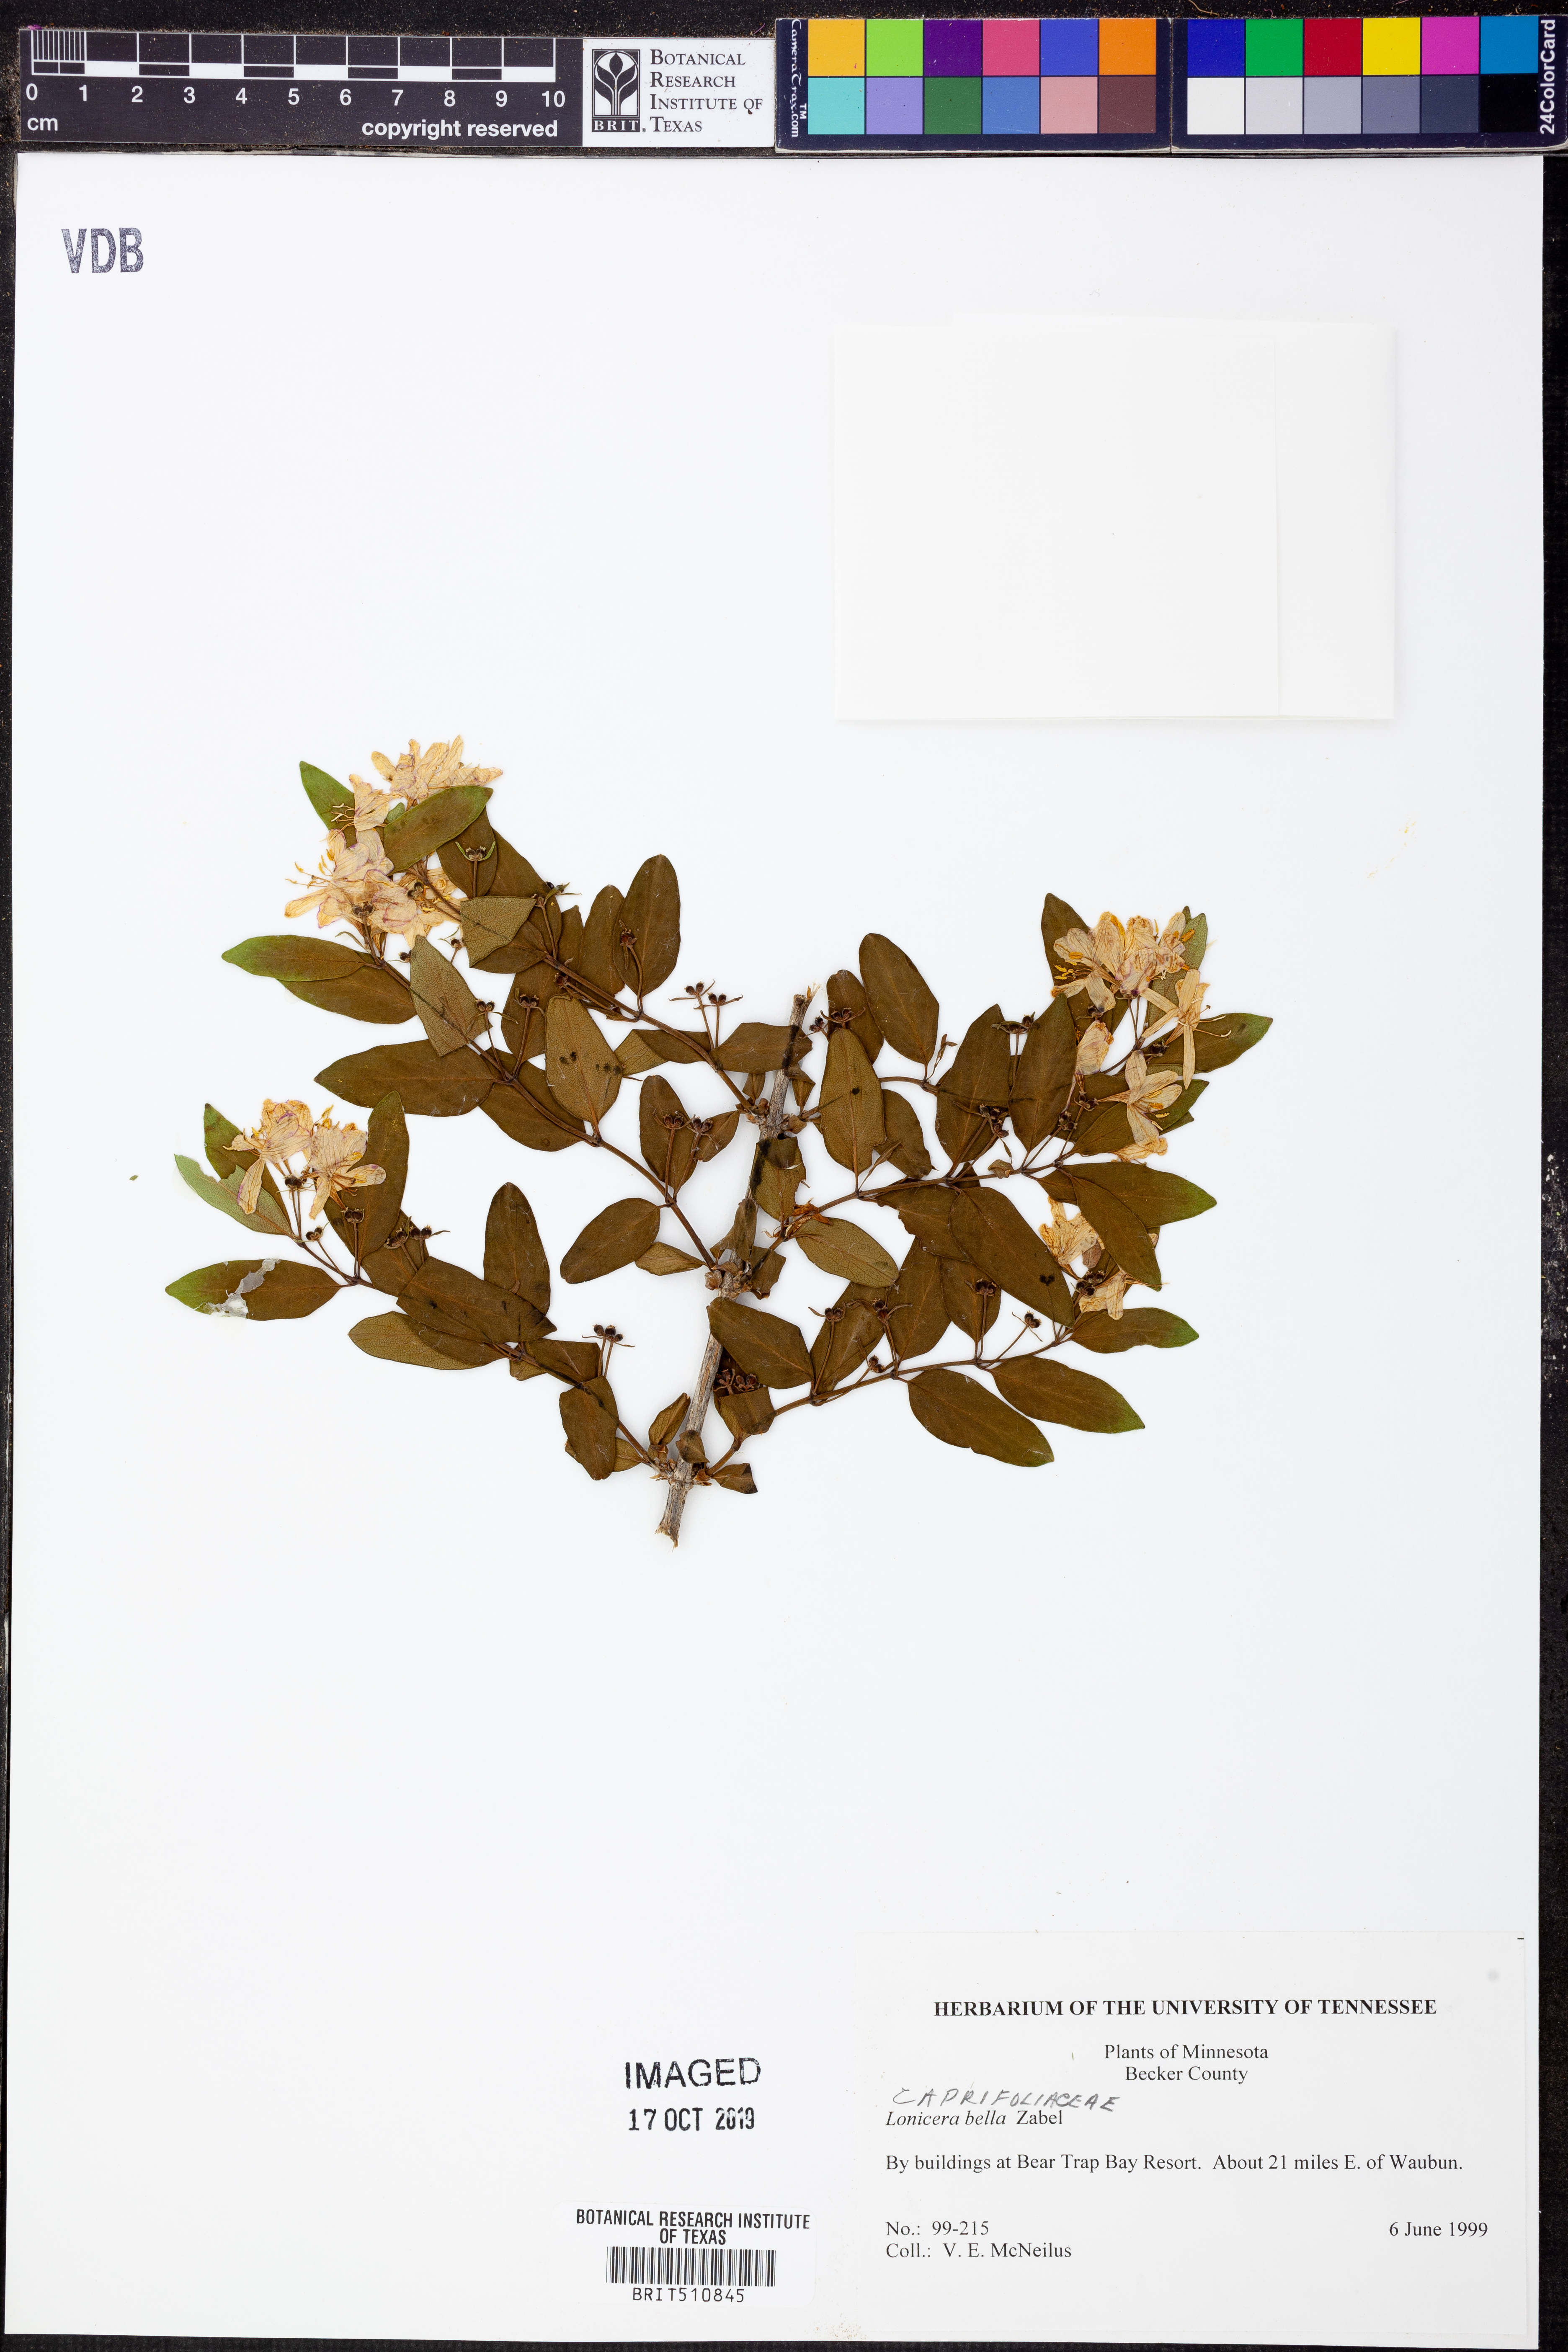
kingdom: Plantae
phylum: Tracheophyta
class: Magnoliopsida
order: Dipsacales
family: Caprifoliaceae
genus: Lonicera
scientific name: Lonicera bella
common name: Bell's honeysuckle
